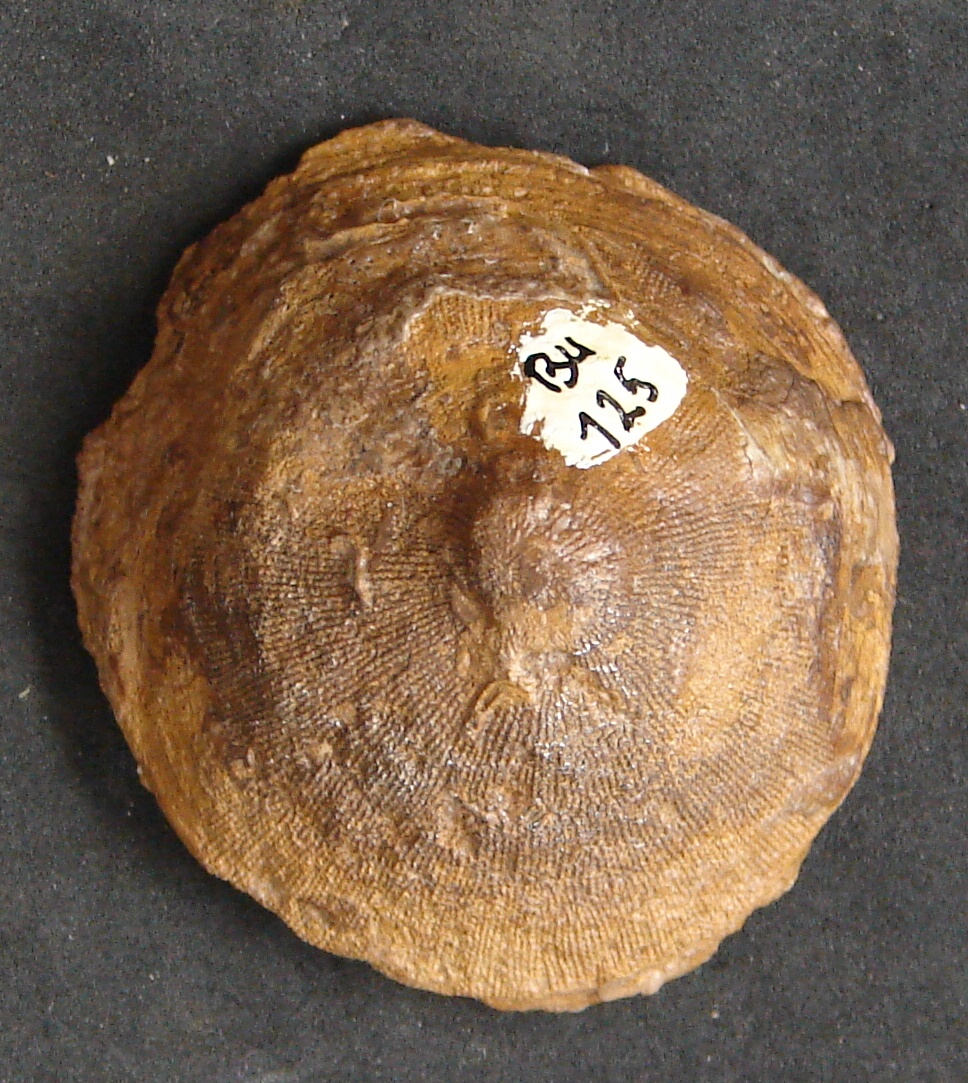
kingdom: Animalia
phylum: Cnidaria
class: Anthozoa
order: Scleractinia
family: Thecosmiliidae
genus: Montlivaultia
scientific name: Montlivaultia
